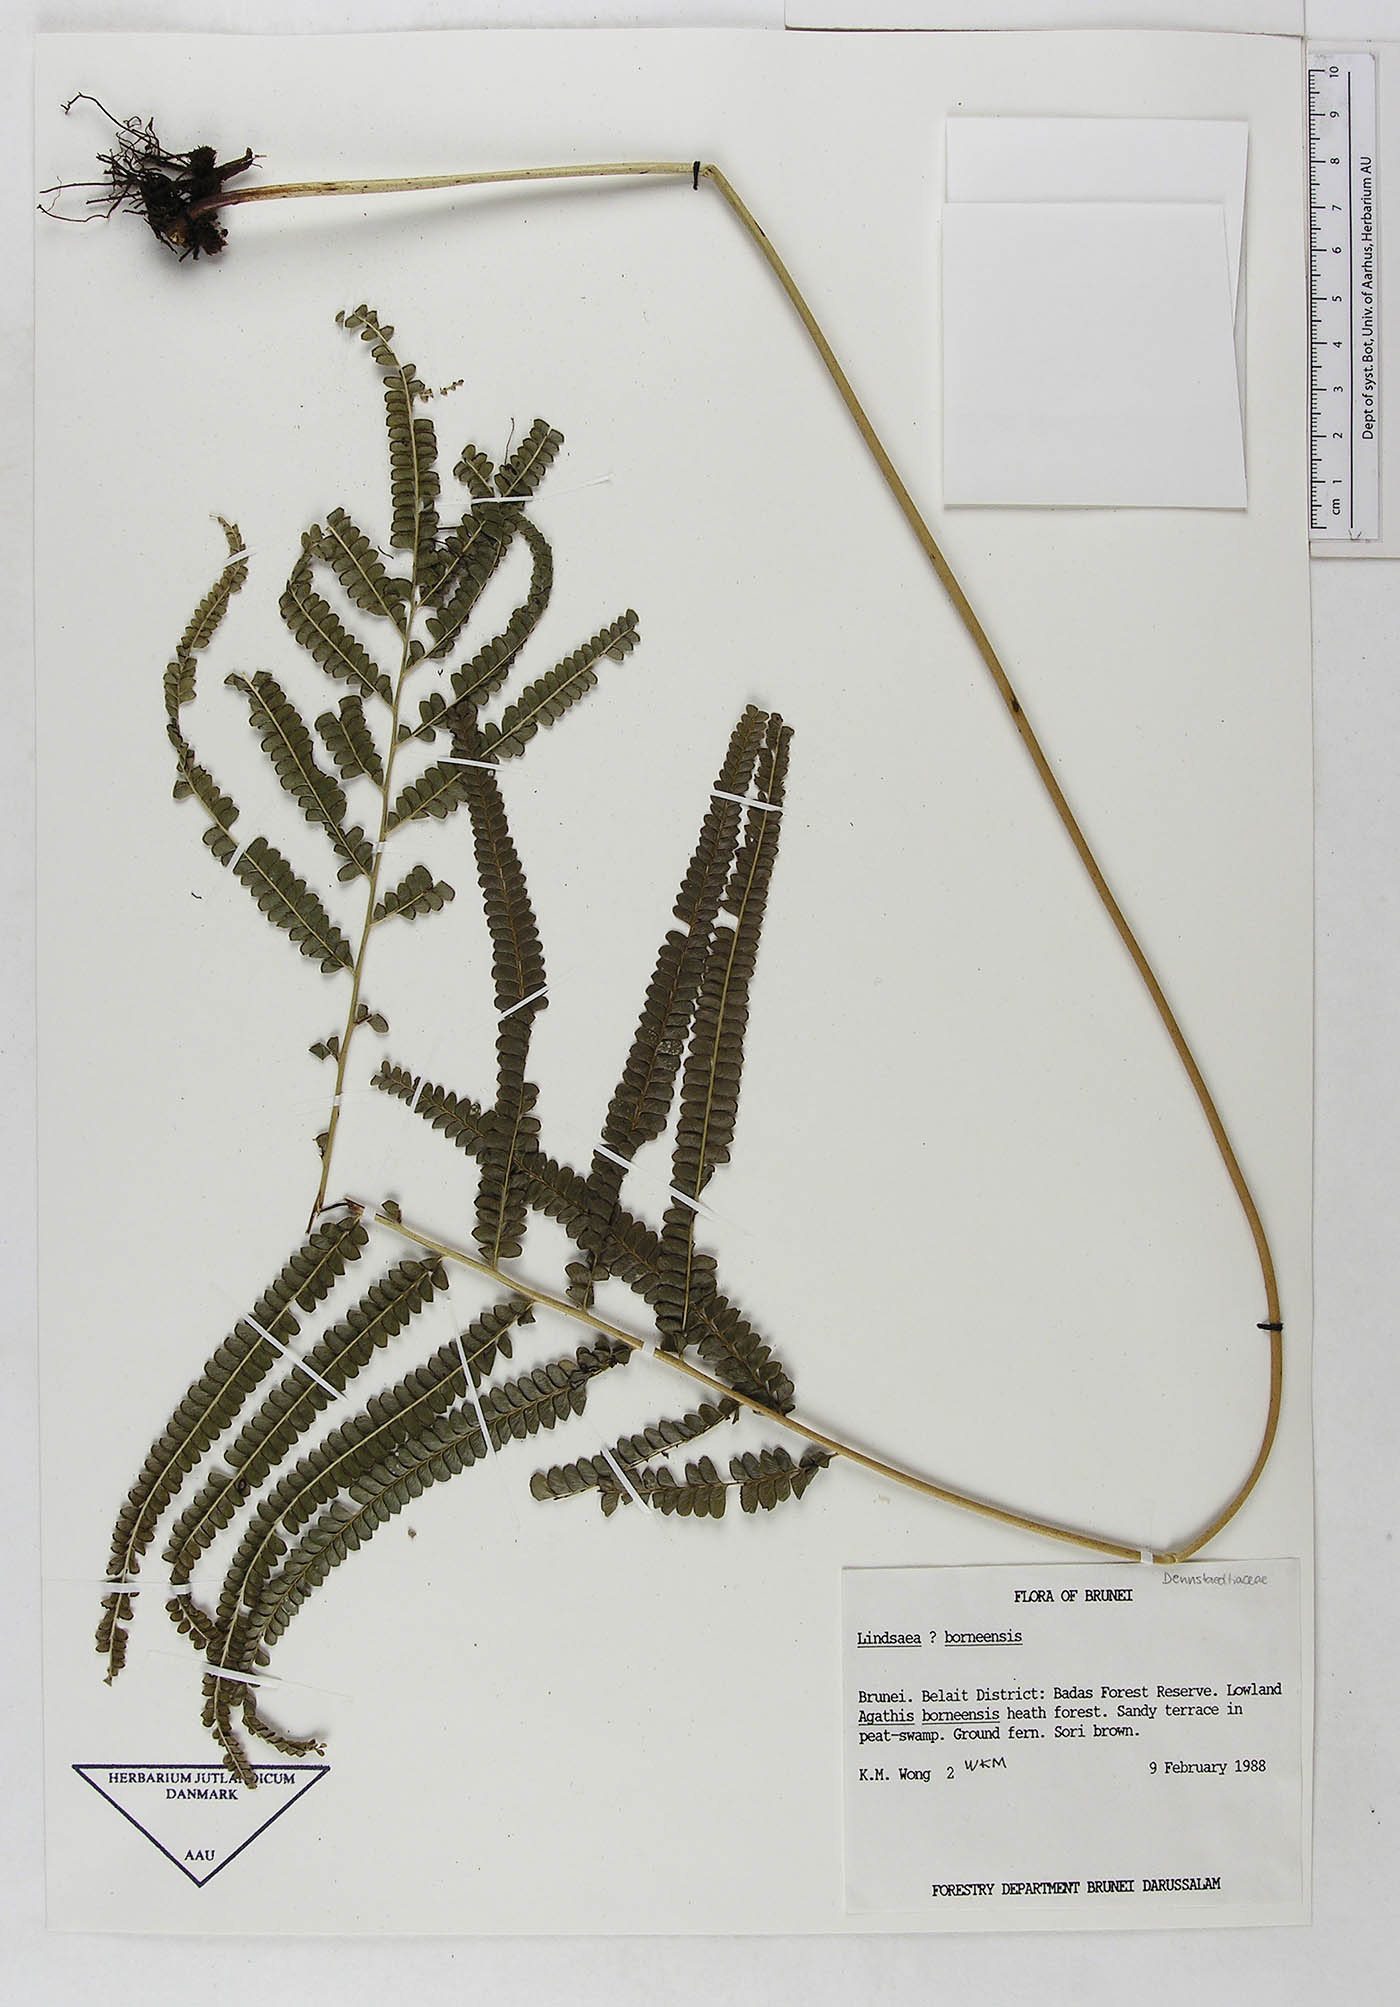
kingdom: Plantae
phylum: Tracheophyta
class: Polypodiopsida
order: Polypodiales
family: Lindsaeaceae
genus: Lindsaea
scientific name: Lindsaea borneensis
